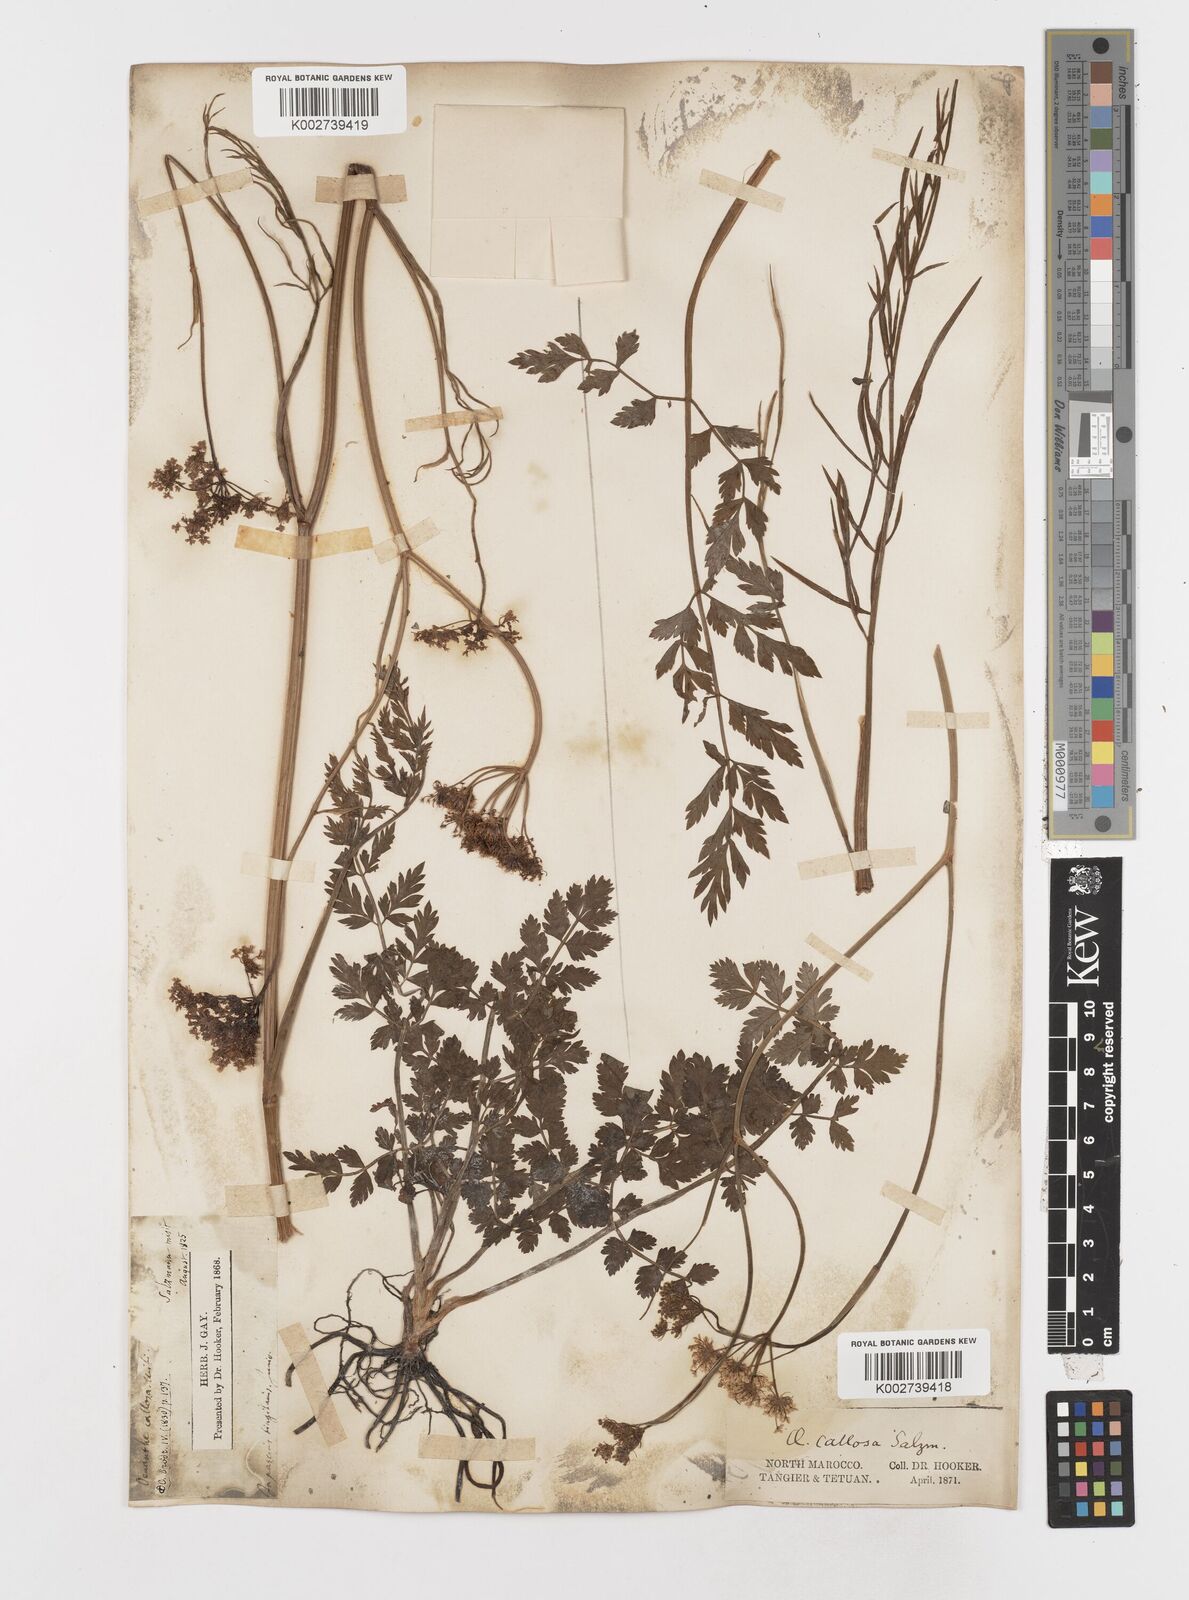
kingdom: Plantae
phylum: Tracheophyta
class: Magnoliopsida
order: Apiales
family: Apiaceae
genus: Oenanthe
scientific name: Oenanthe pimpinelloides
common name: Corky-fruited water-dropwort
